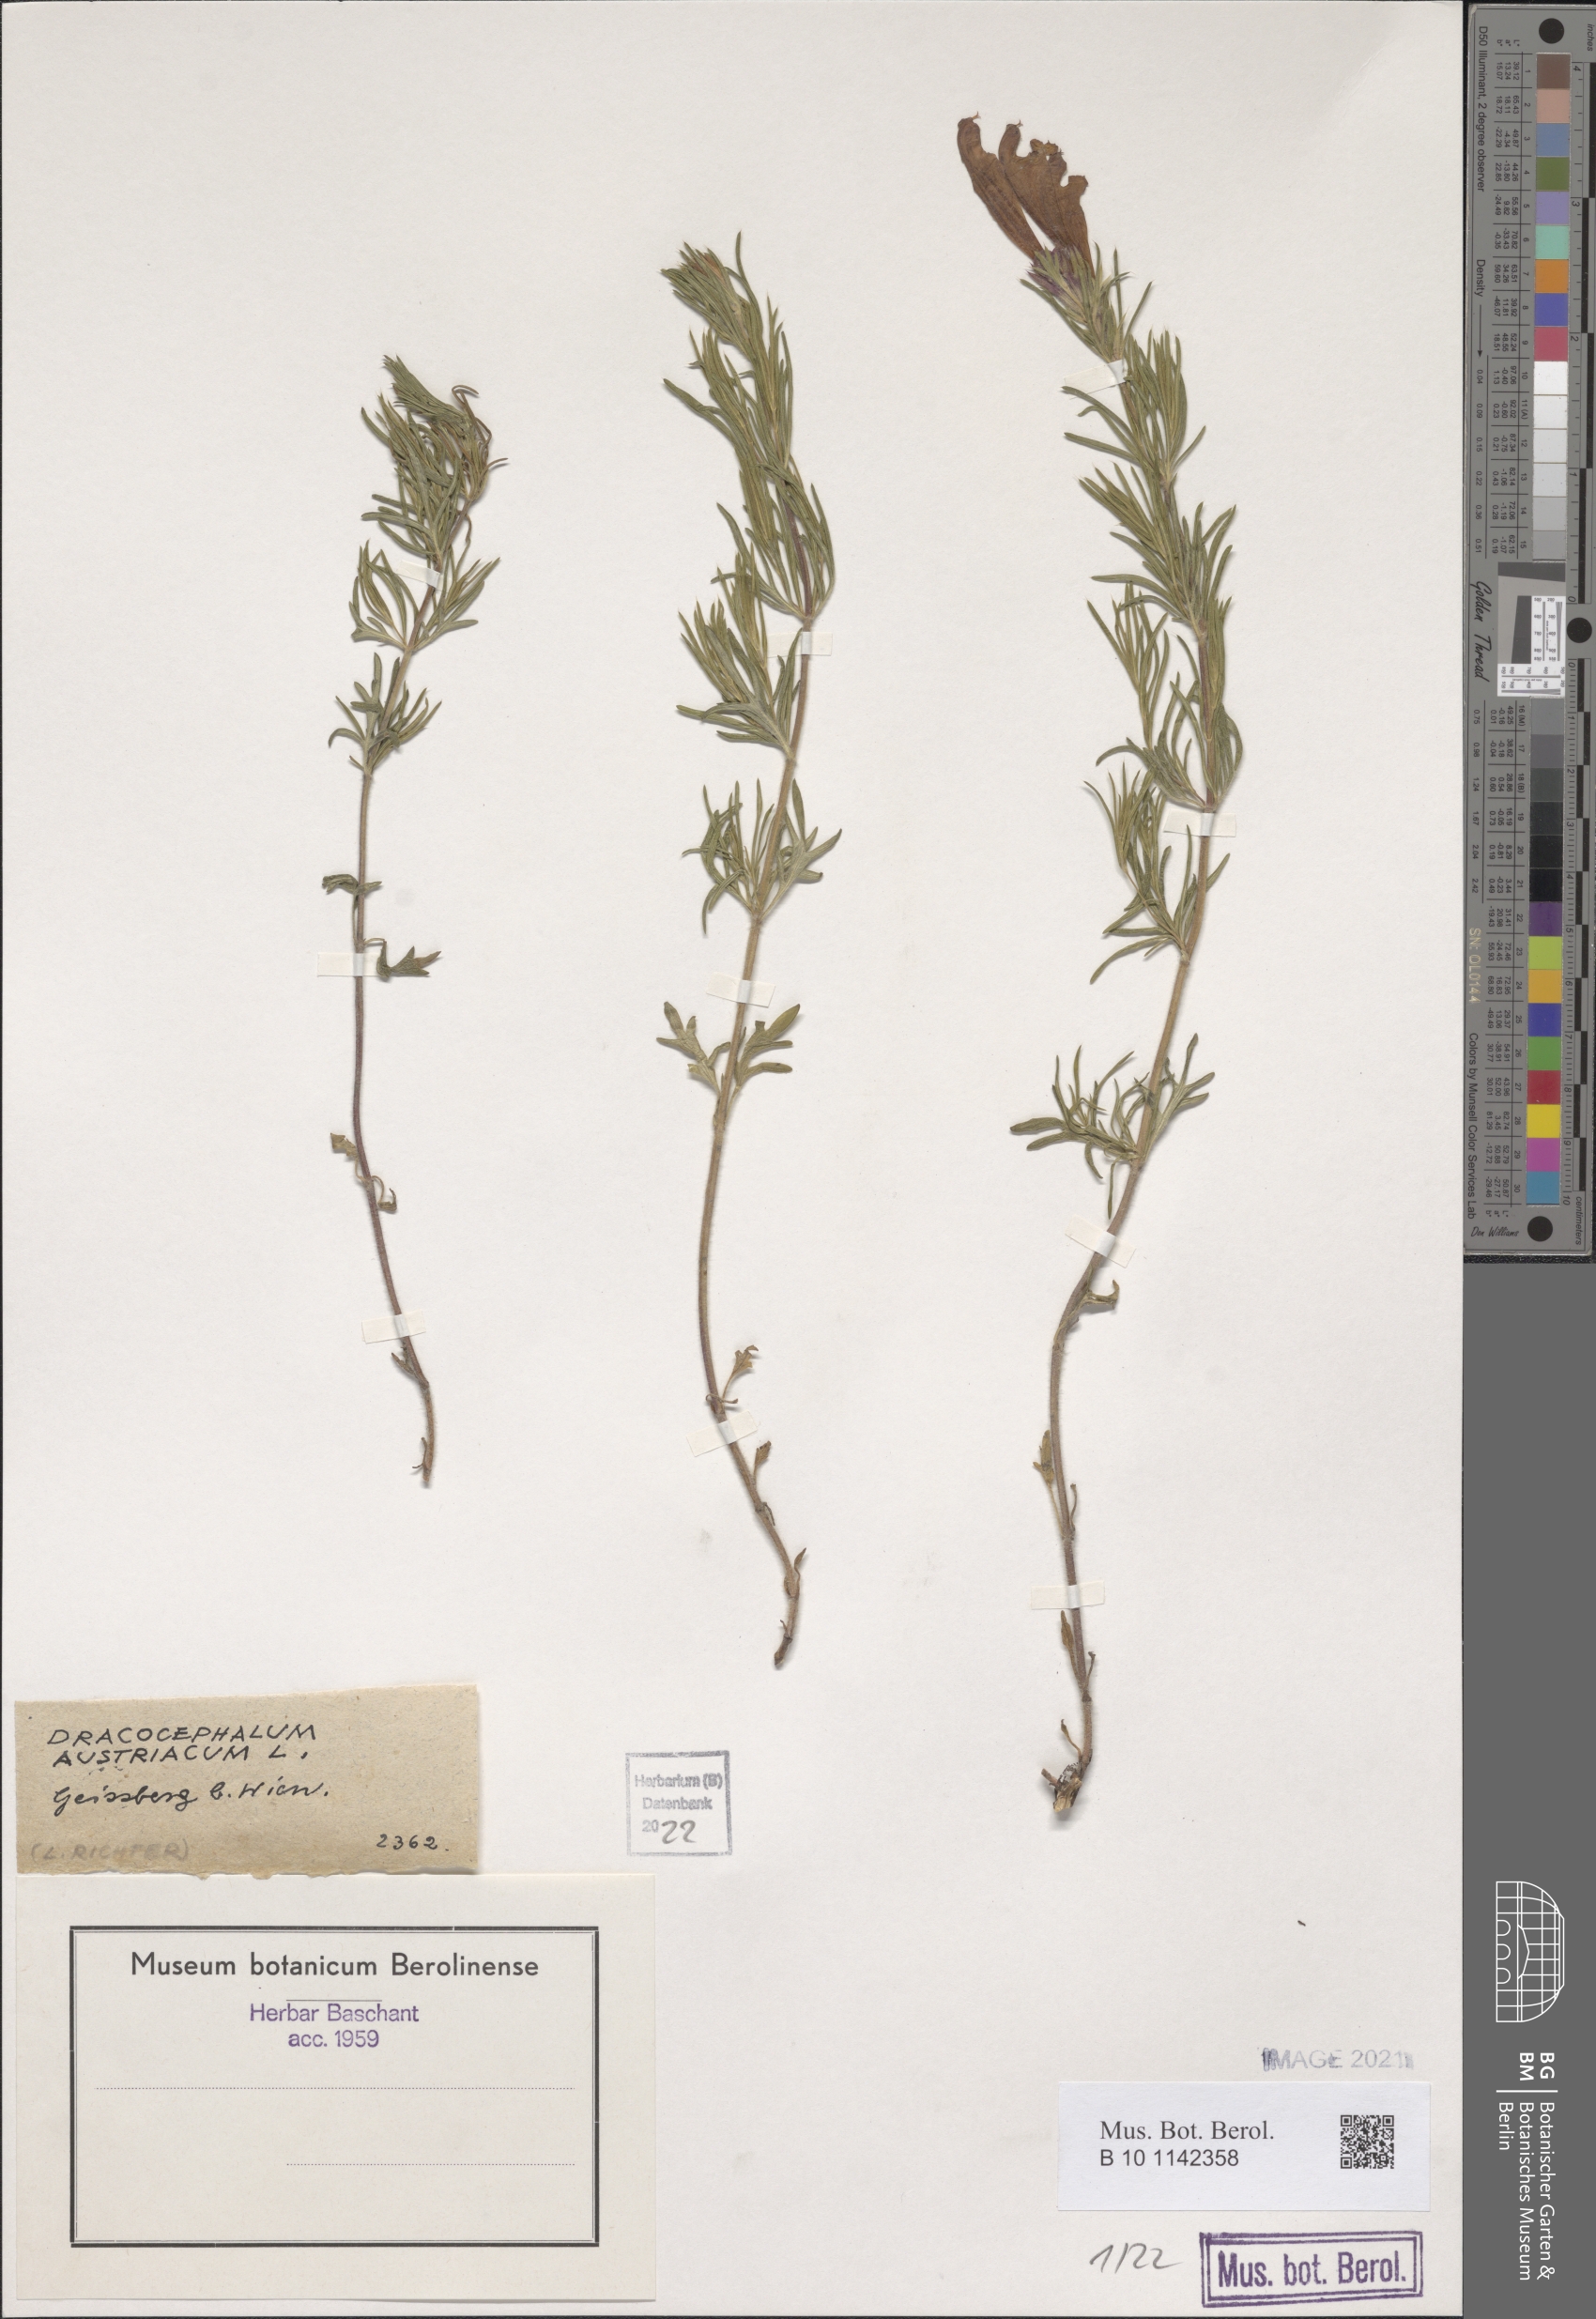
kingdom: Plantae
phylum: Tracheophyta
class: Magnoliopsida
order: Lamiales
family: Lamiaceae
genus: Dracocephalum
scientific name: Dracocephalum austriacum
